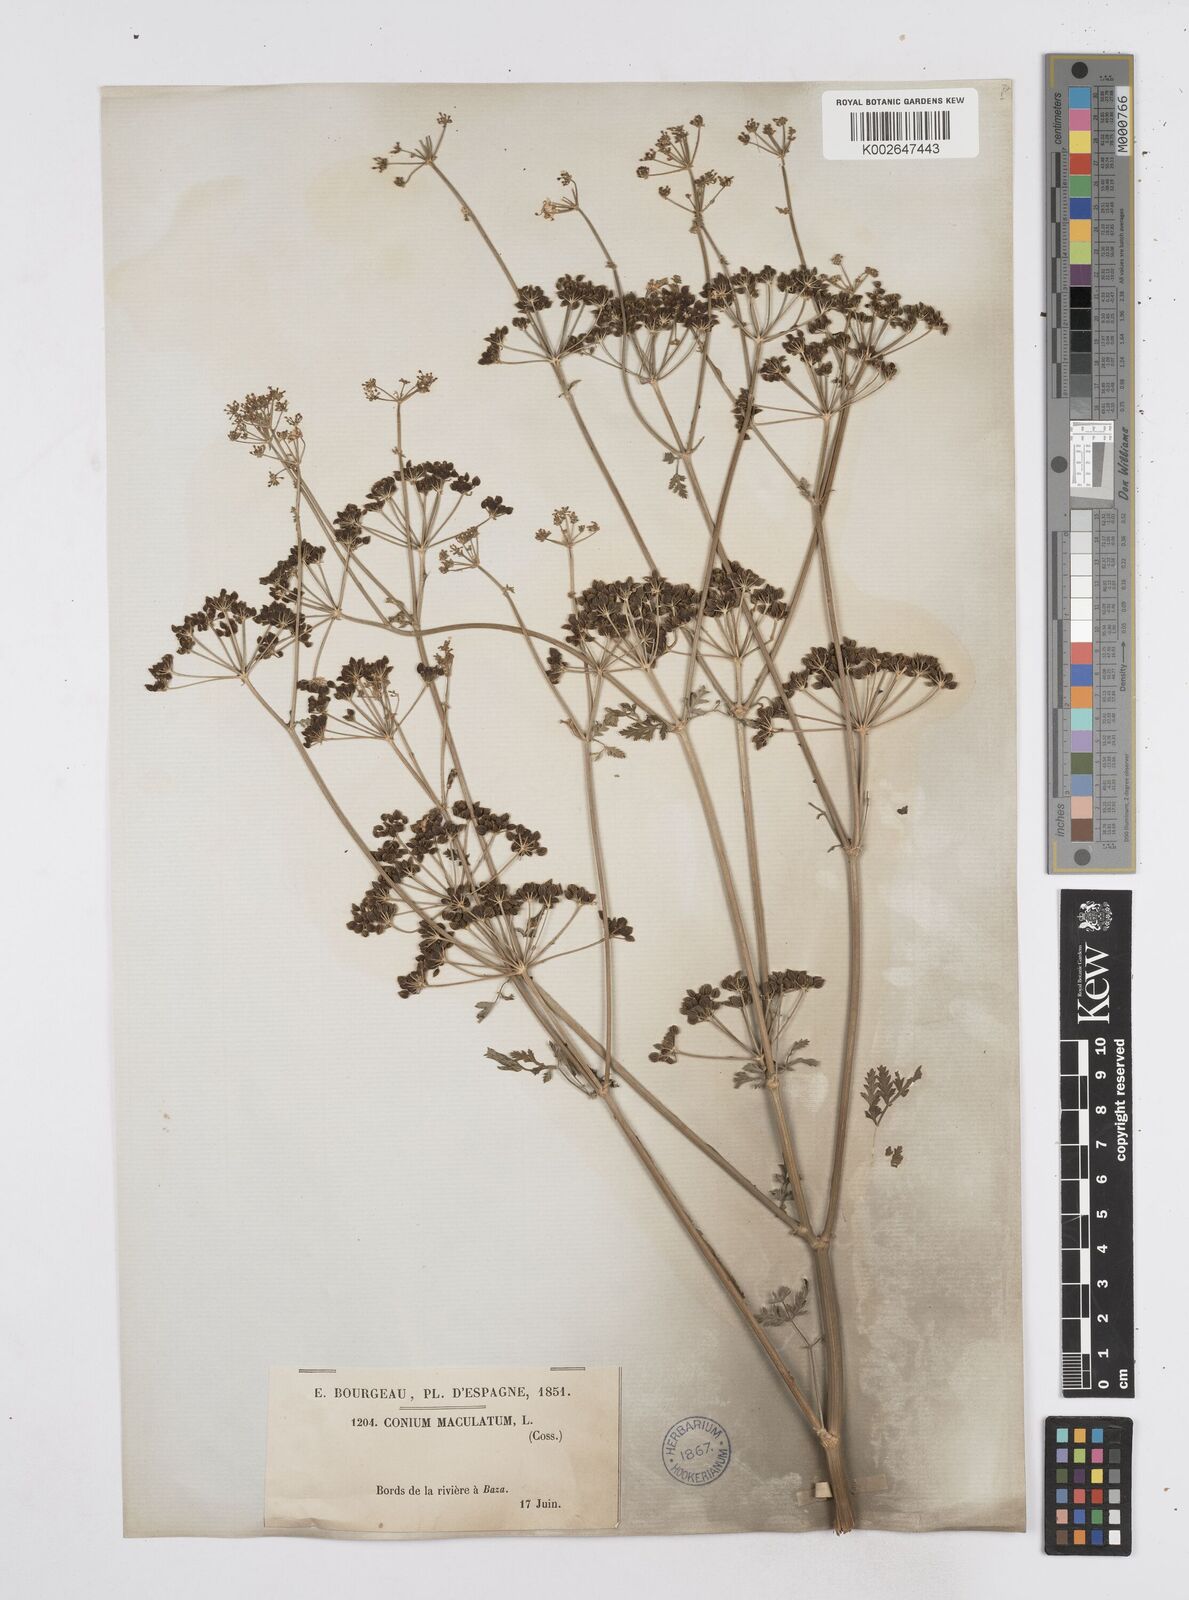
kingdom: Plantae
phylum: Tracheophyta
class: Magnoliopsida
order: Apiales
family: Apiaceae
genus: Conium
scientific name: Conium maculatum
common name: Hemlock
